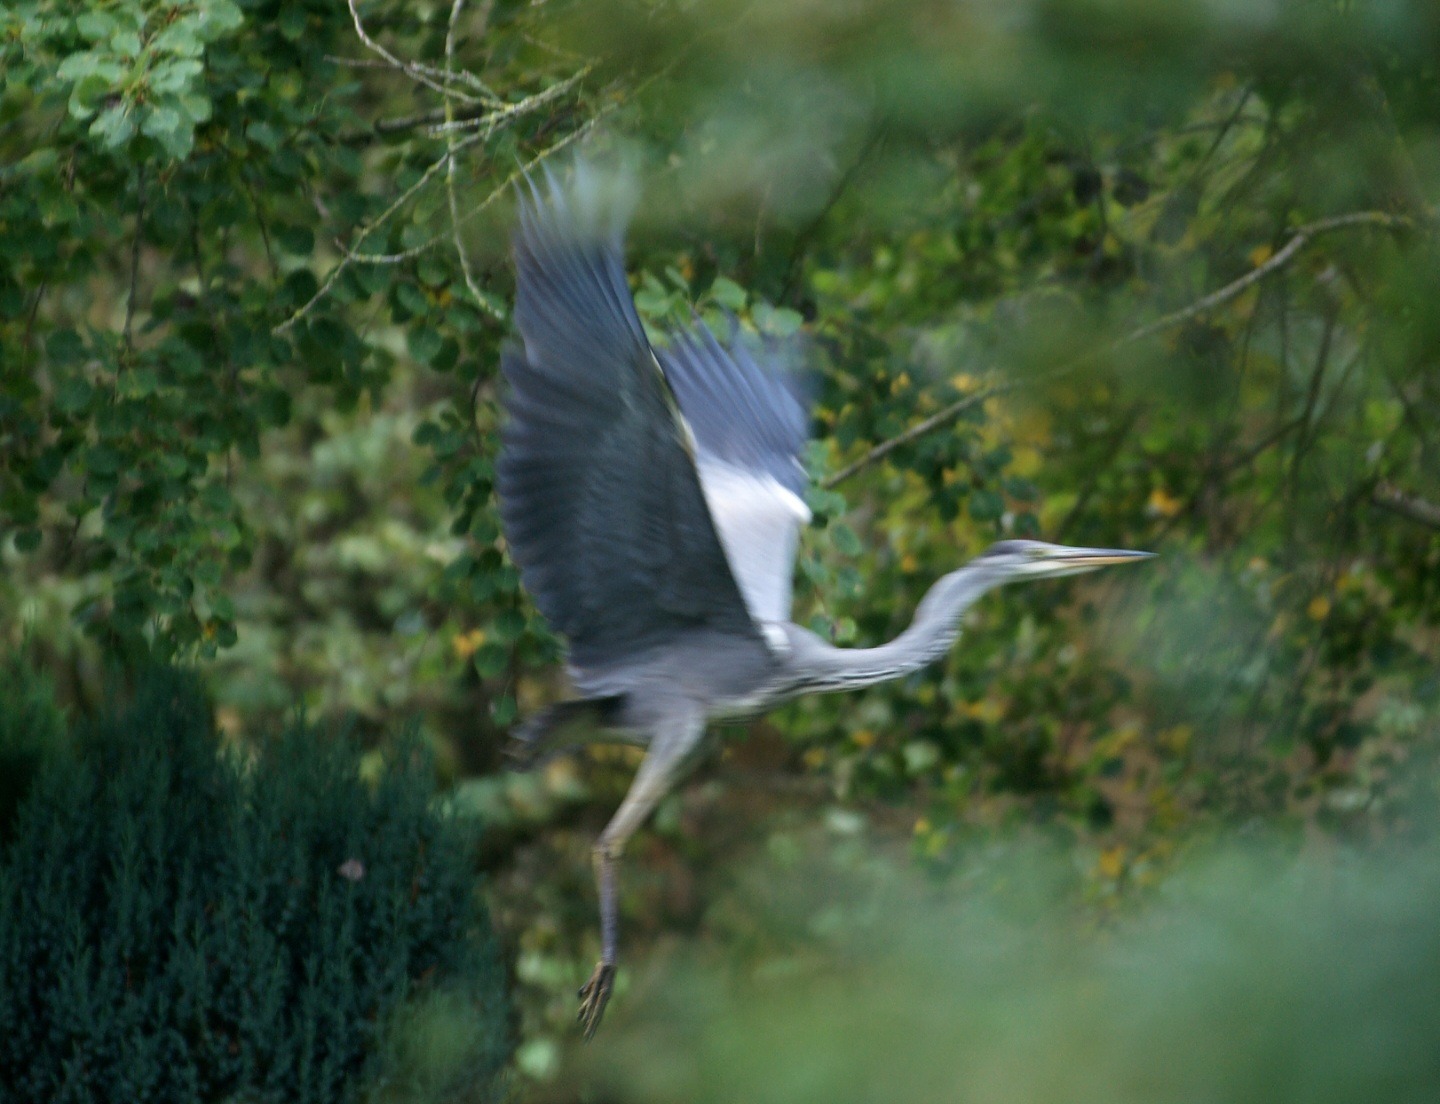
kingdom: Animalia
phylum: Chordata
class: Aves
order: Pelecaniformes
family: Ardeidae
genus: Ardea
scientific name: Ardea cinerea
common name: Fiskehejre
